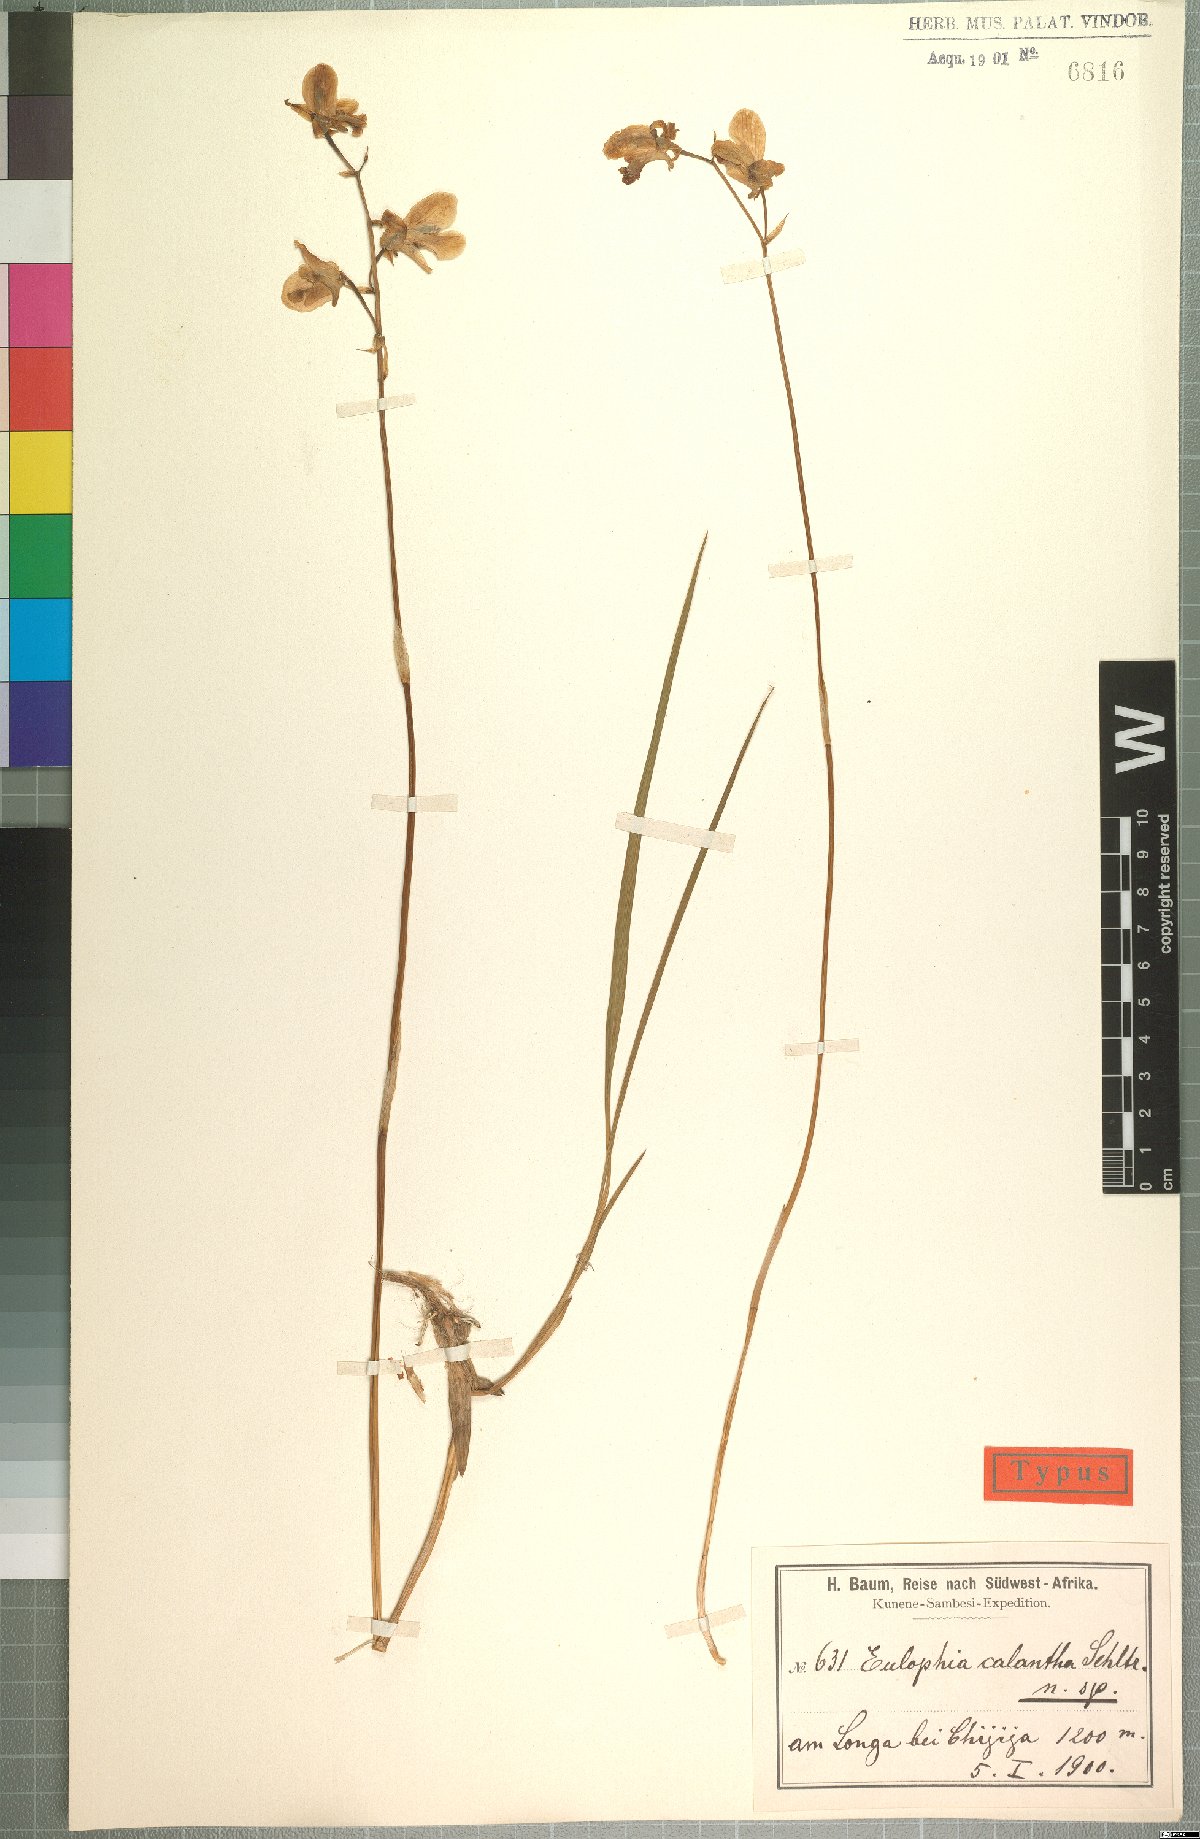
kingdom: Plantae
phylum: Tracheophyta
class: Liliopsida
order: Asparagales
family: Orchidaceae
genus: Eulophia
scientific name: Eulophia calantha
